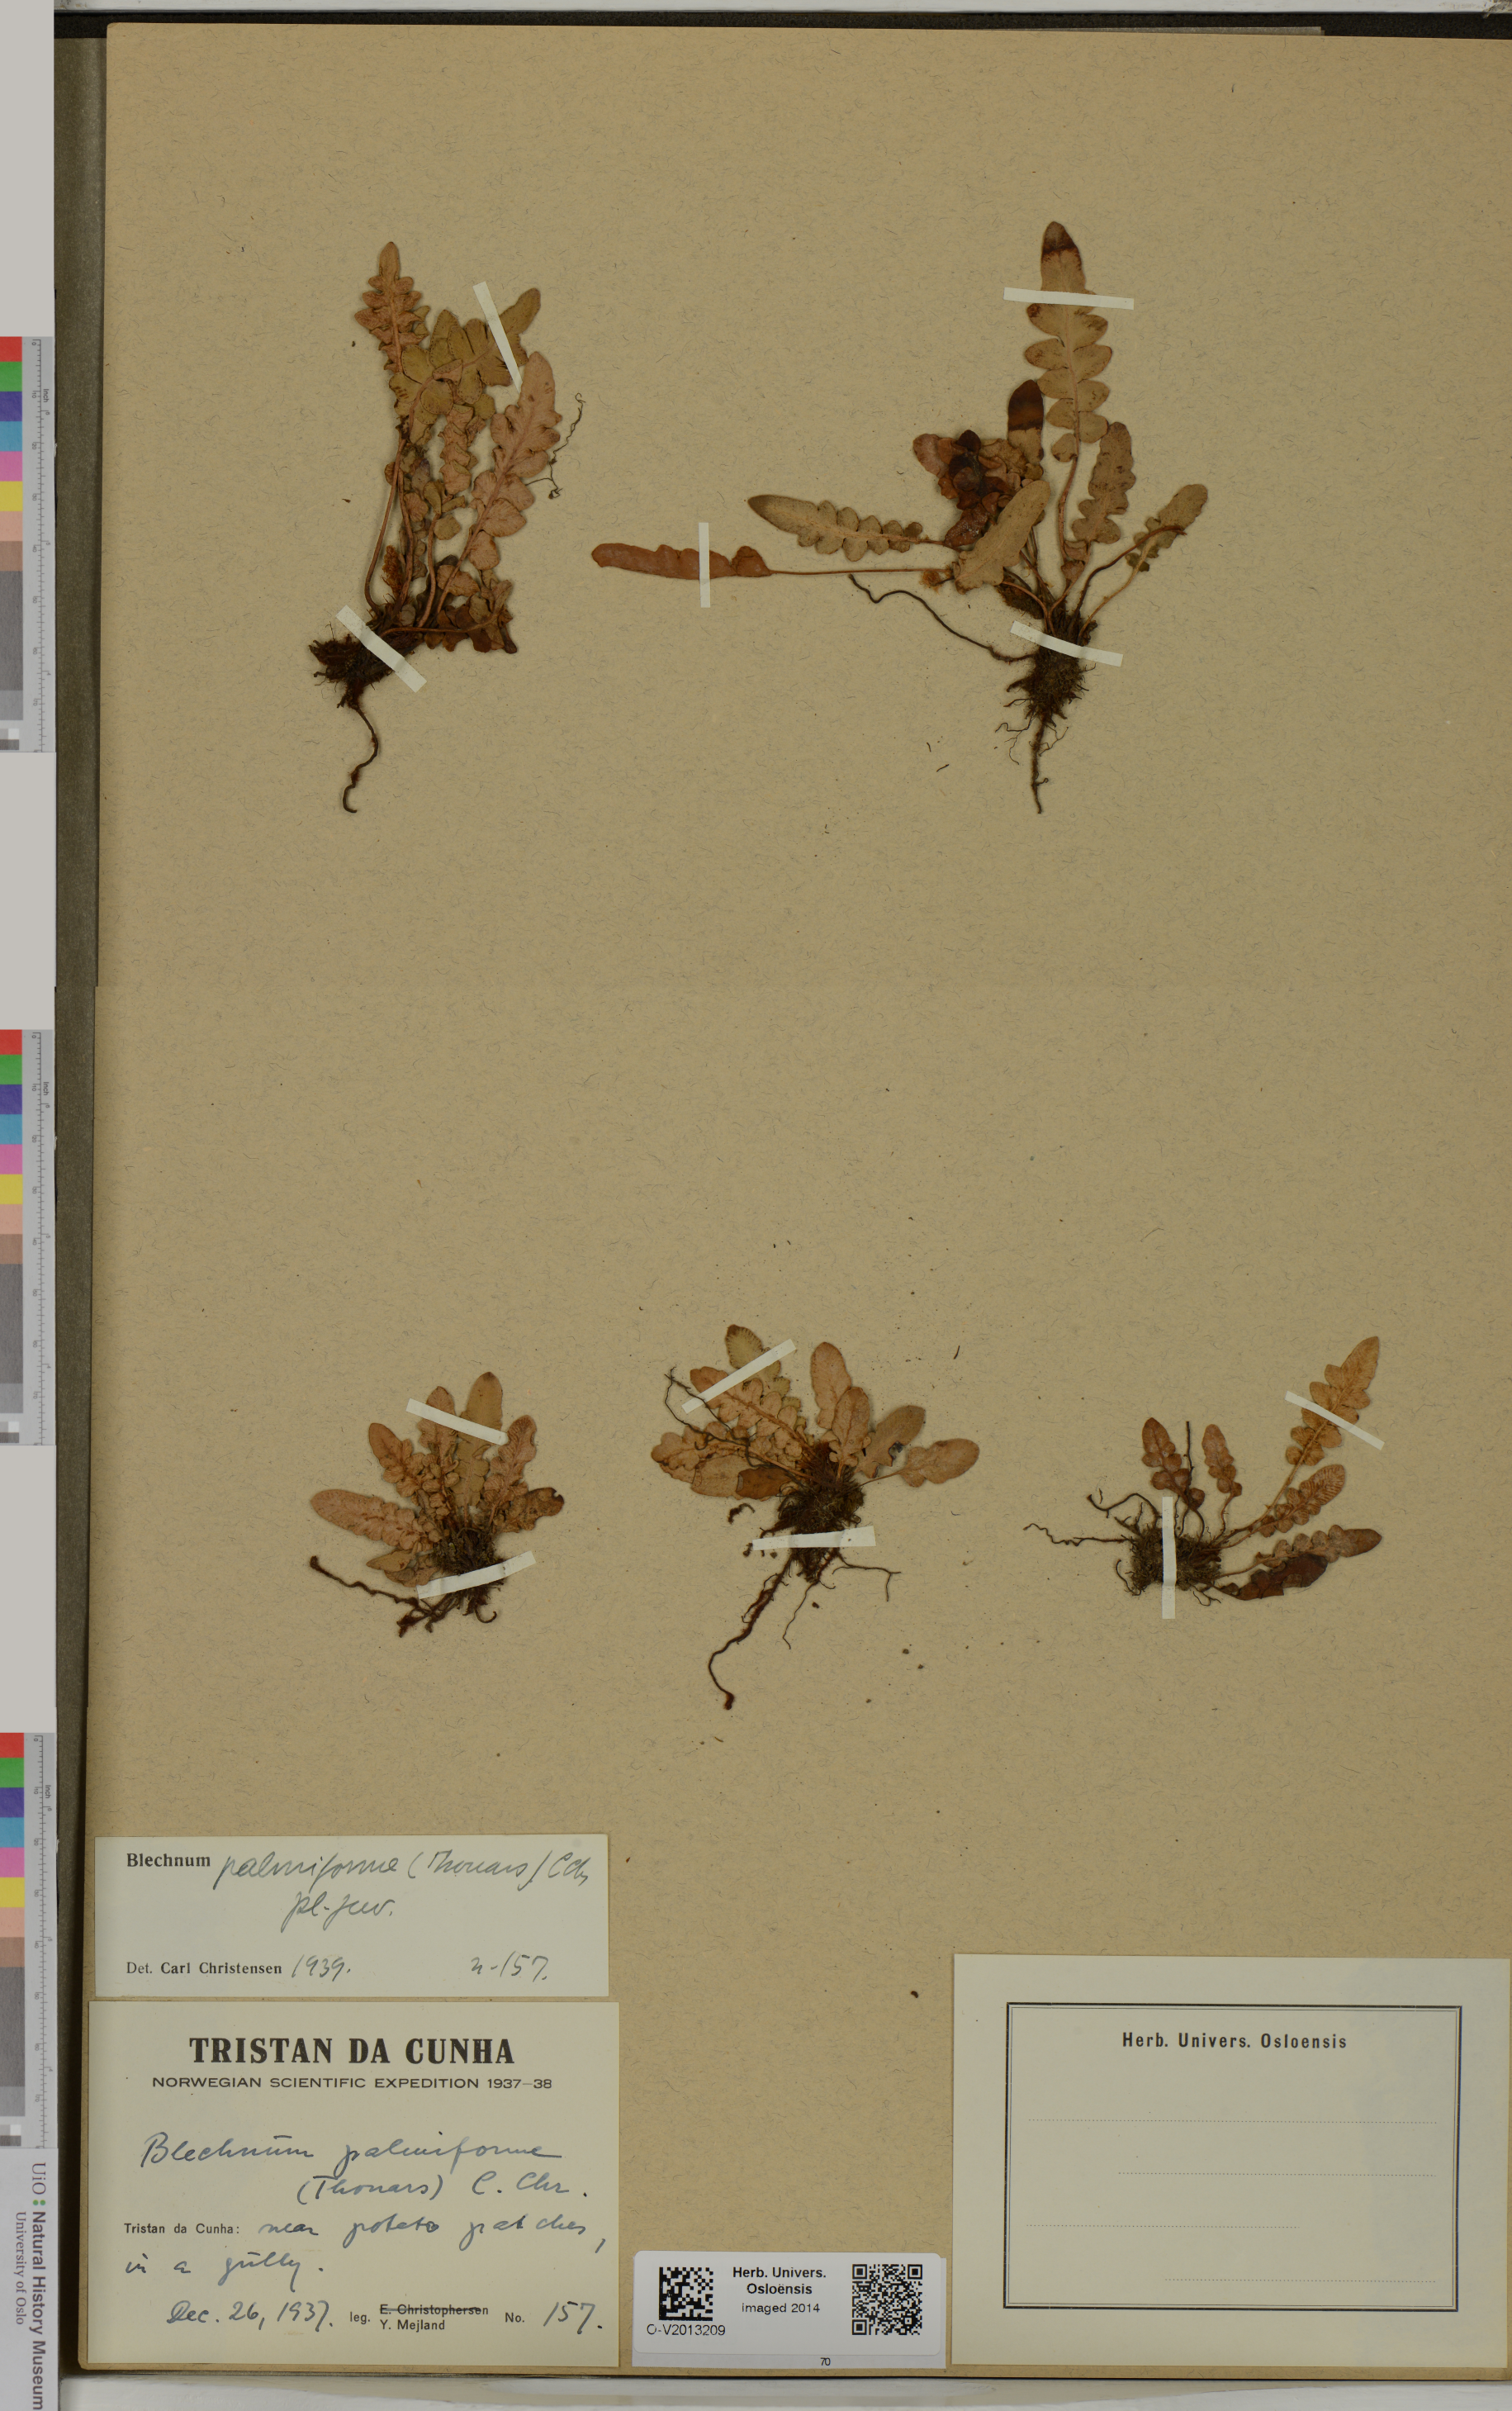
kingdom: Plantae
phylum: Tracheophyta
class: Polypodiopsida
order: Polypodiales
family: Blechnaceae
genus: Lomariocycas
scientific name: Lomariocycas palmiformis
